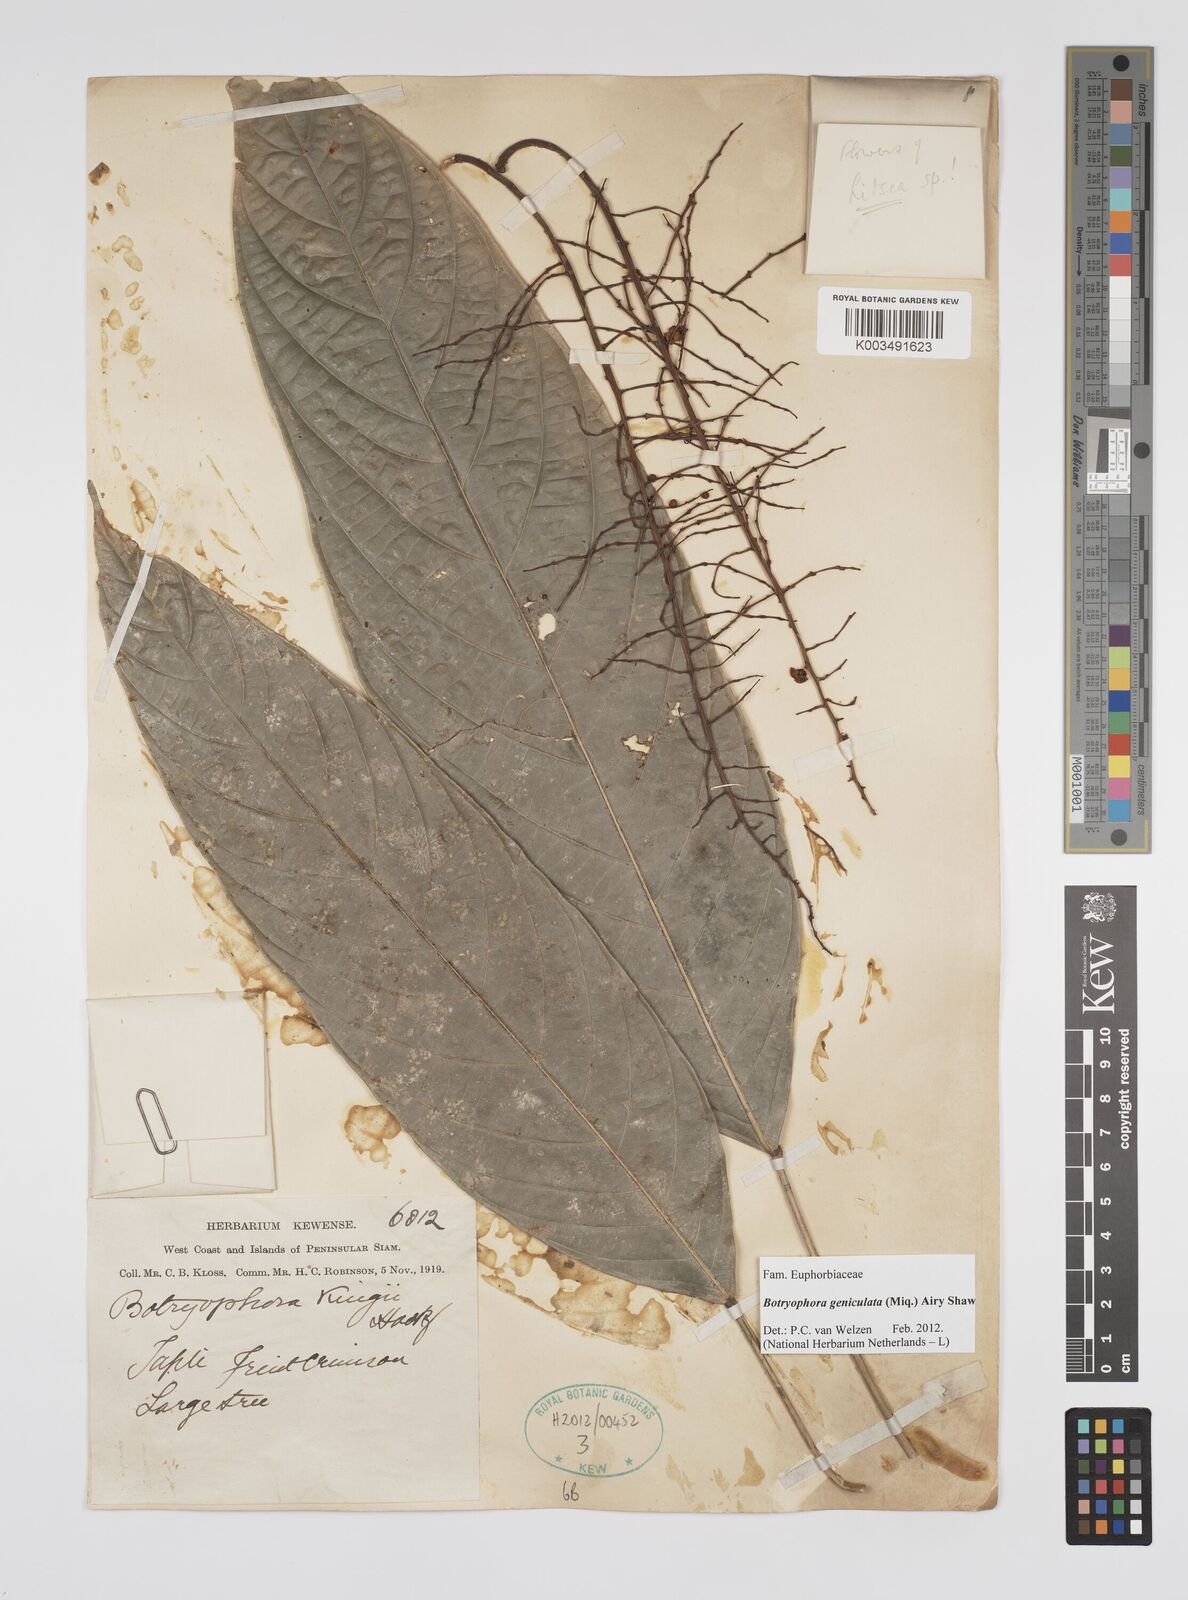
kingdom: Plantae
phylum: Tracheophyta
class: Magnoliopsida
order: Malpighiales
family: Euphorbiaceae
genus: Botryophora
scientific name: Botryophora geniculata
